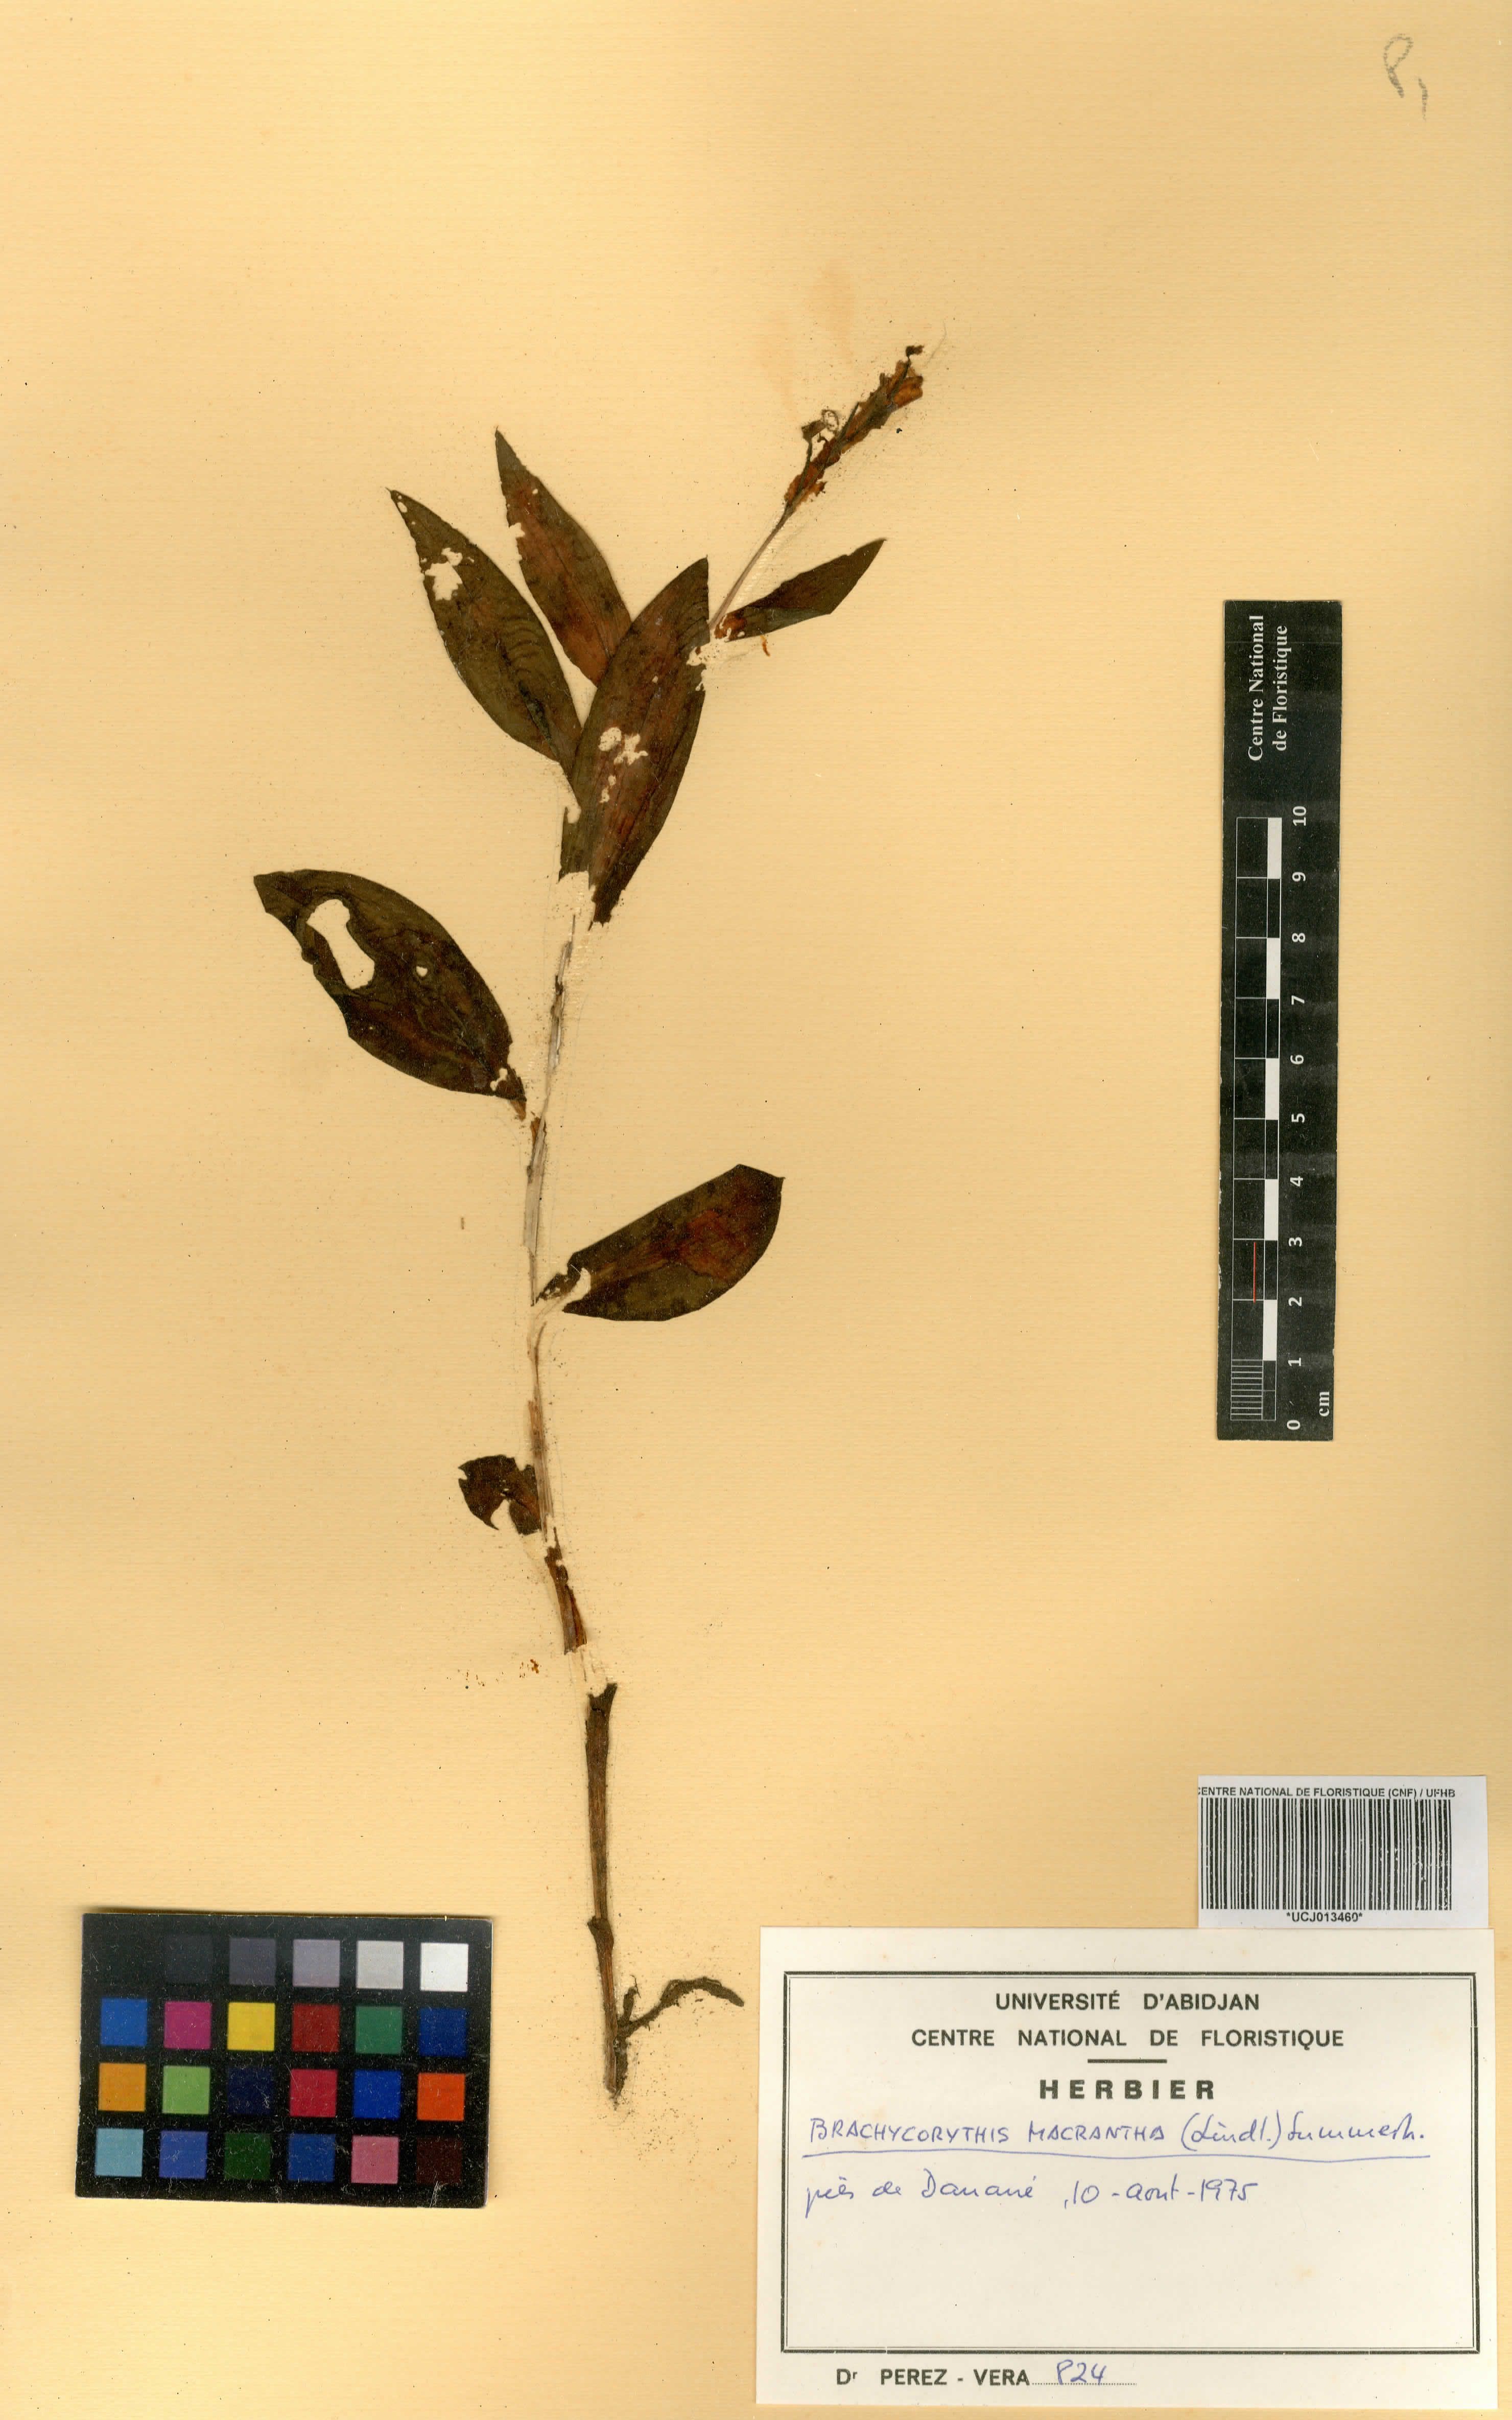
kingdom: Plantae
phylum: Tracheophyta
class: Liliopsida
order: Asparagales
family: Orchidaceae
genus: Brachycorythis
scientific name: Brachycorythis macrantha
